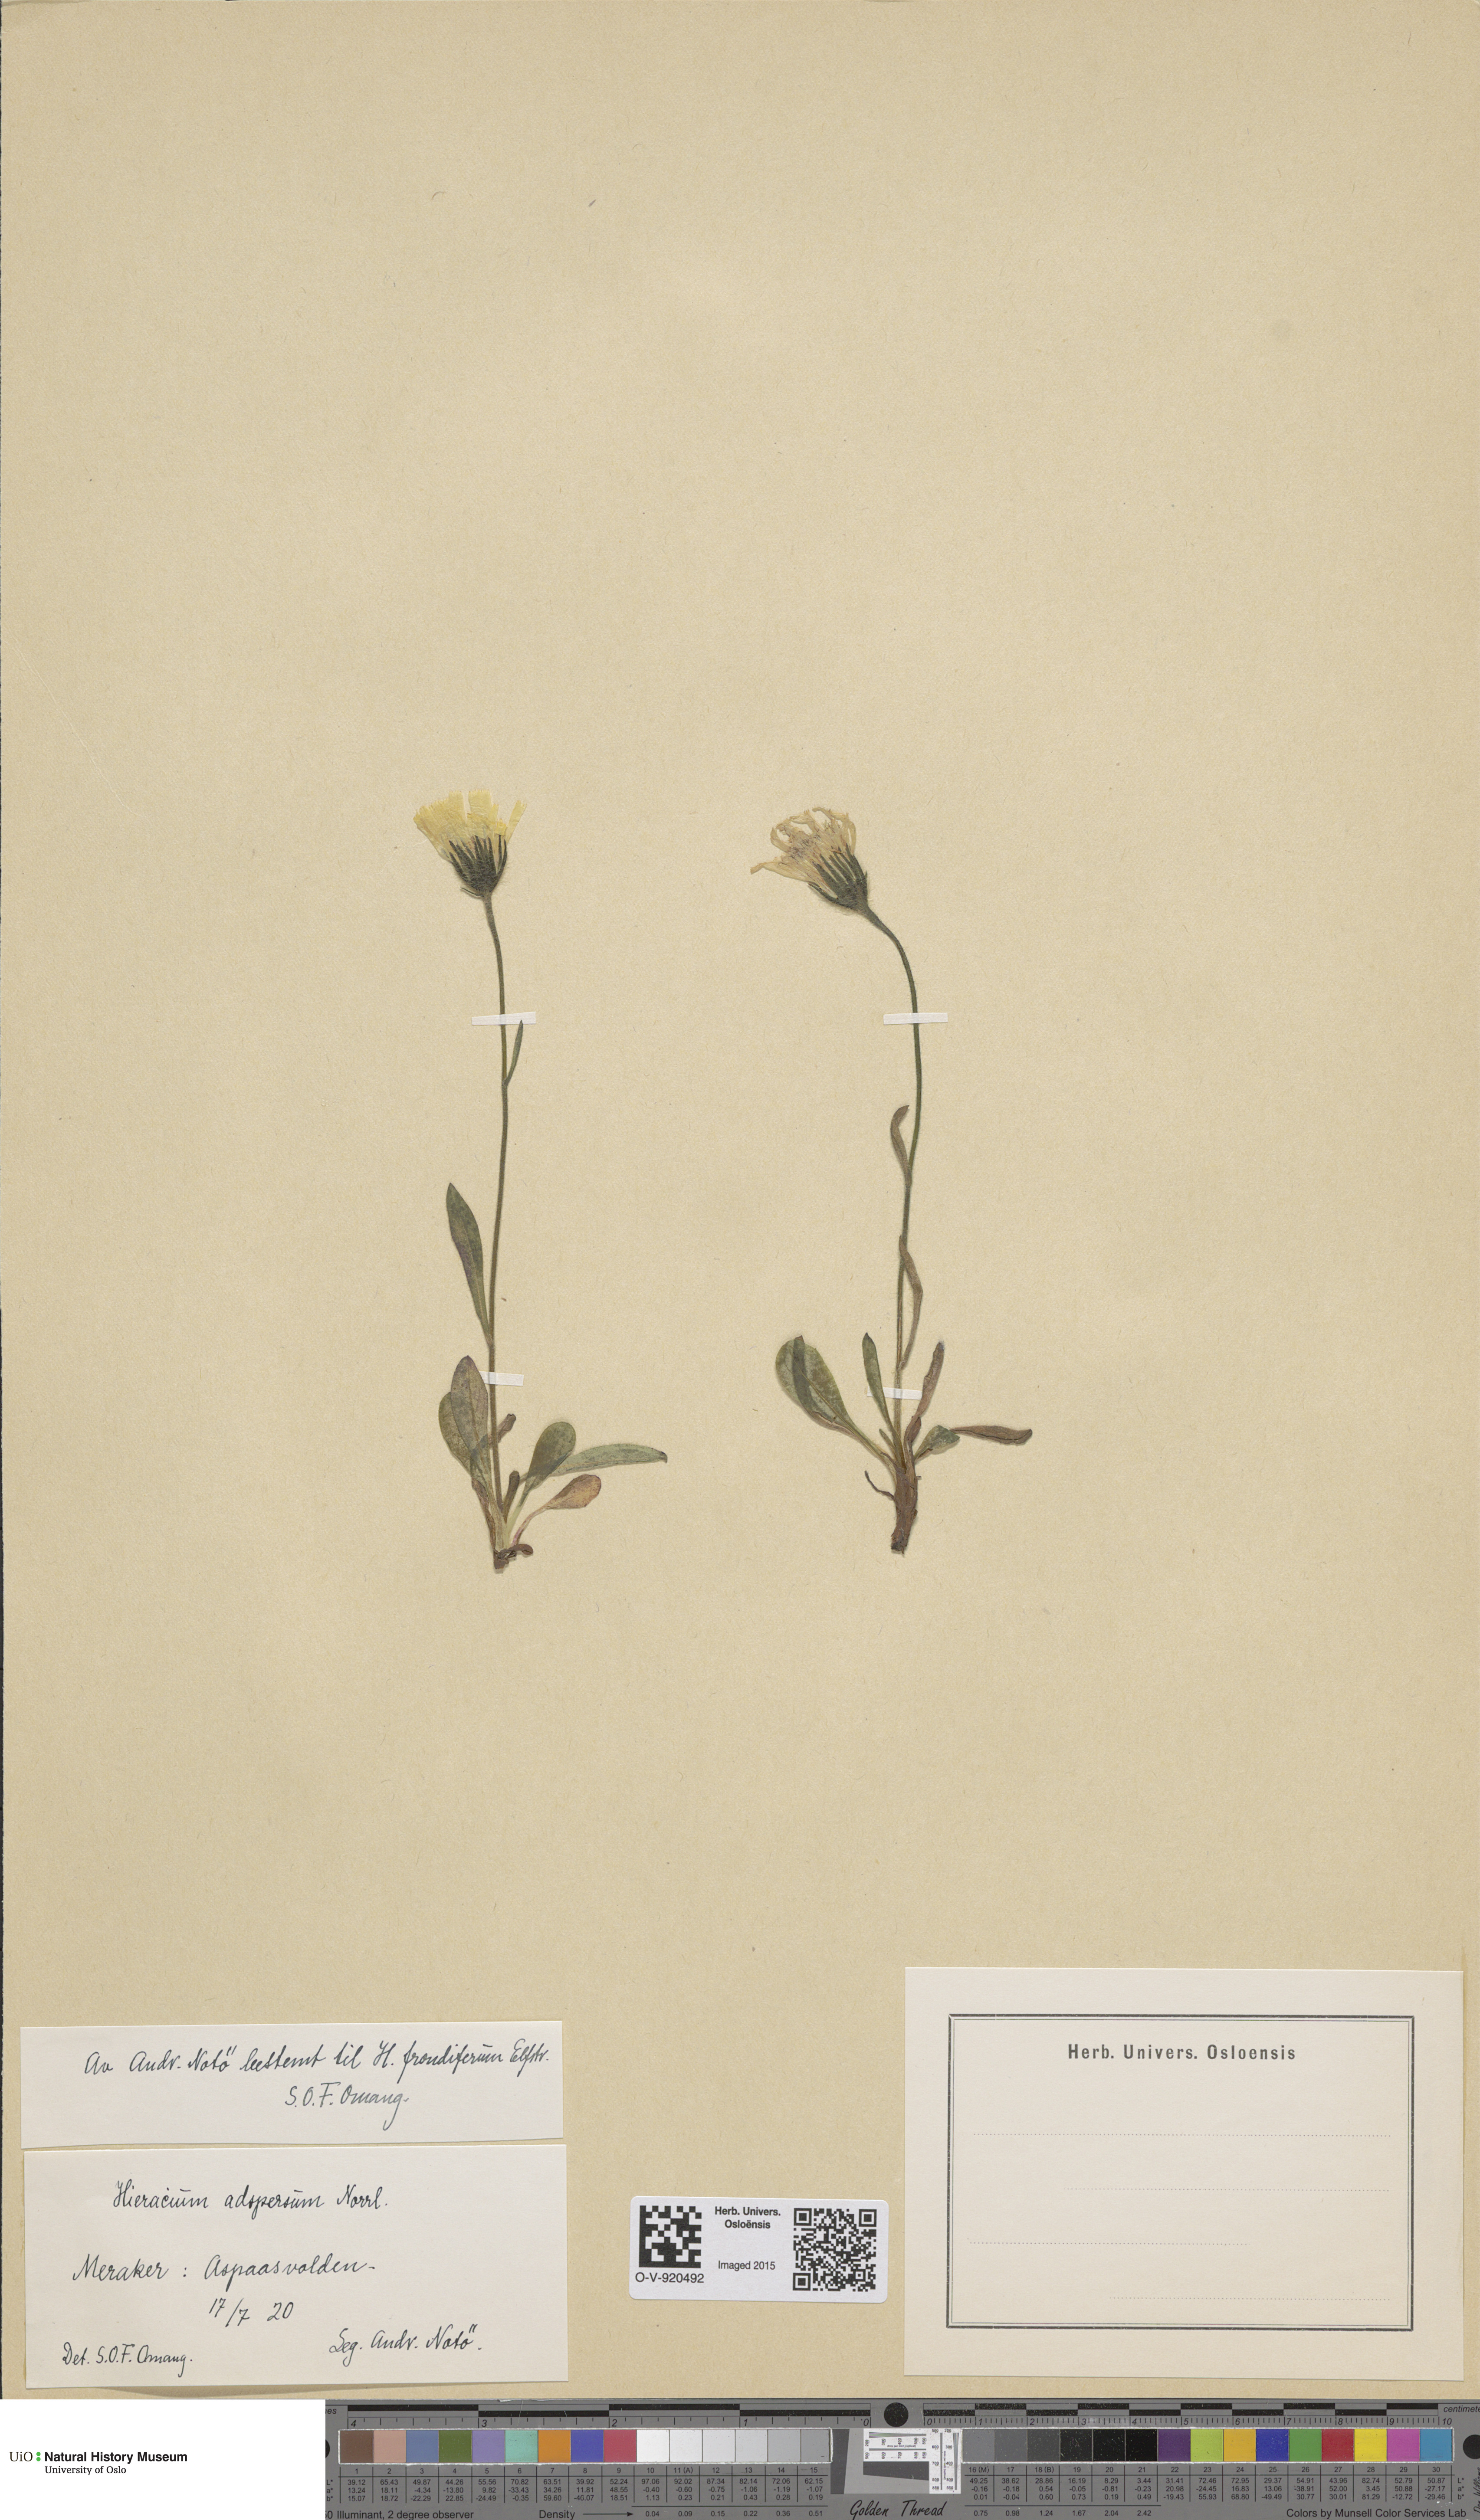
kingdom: Plantae
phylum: Tracheophyta
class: Magnoliopsida
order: Asterales
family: Asteraceae
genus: Hieracium
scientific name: Hieracium alpinum
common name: Alpine hawkweed
